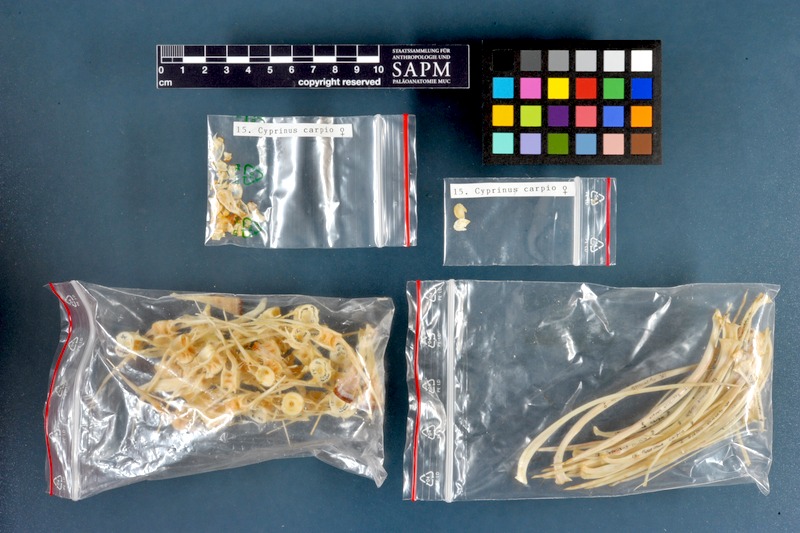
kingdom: Animalia
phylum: Chordata
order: Cypriniformes
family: Cyprinidae
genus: Cyprinus
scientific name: Cyprinus carpio
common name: Common carp
